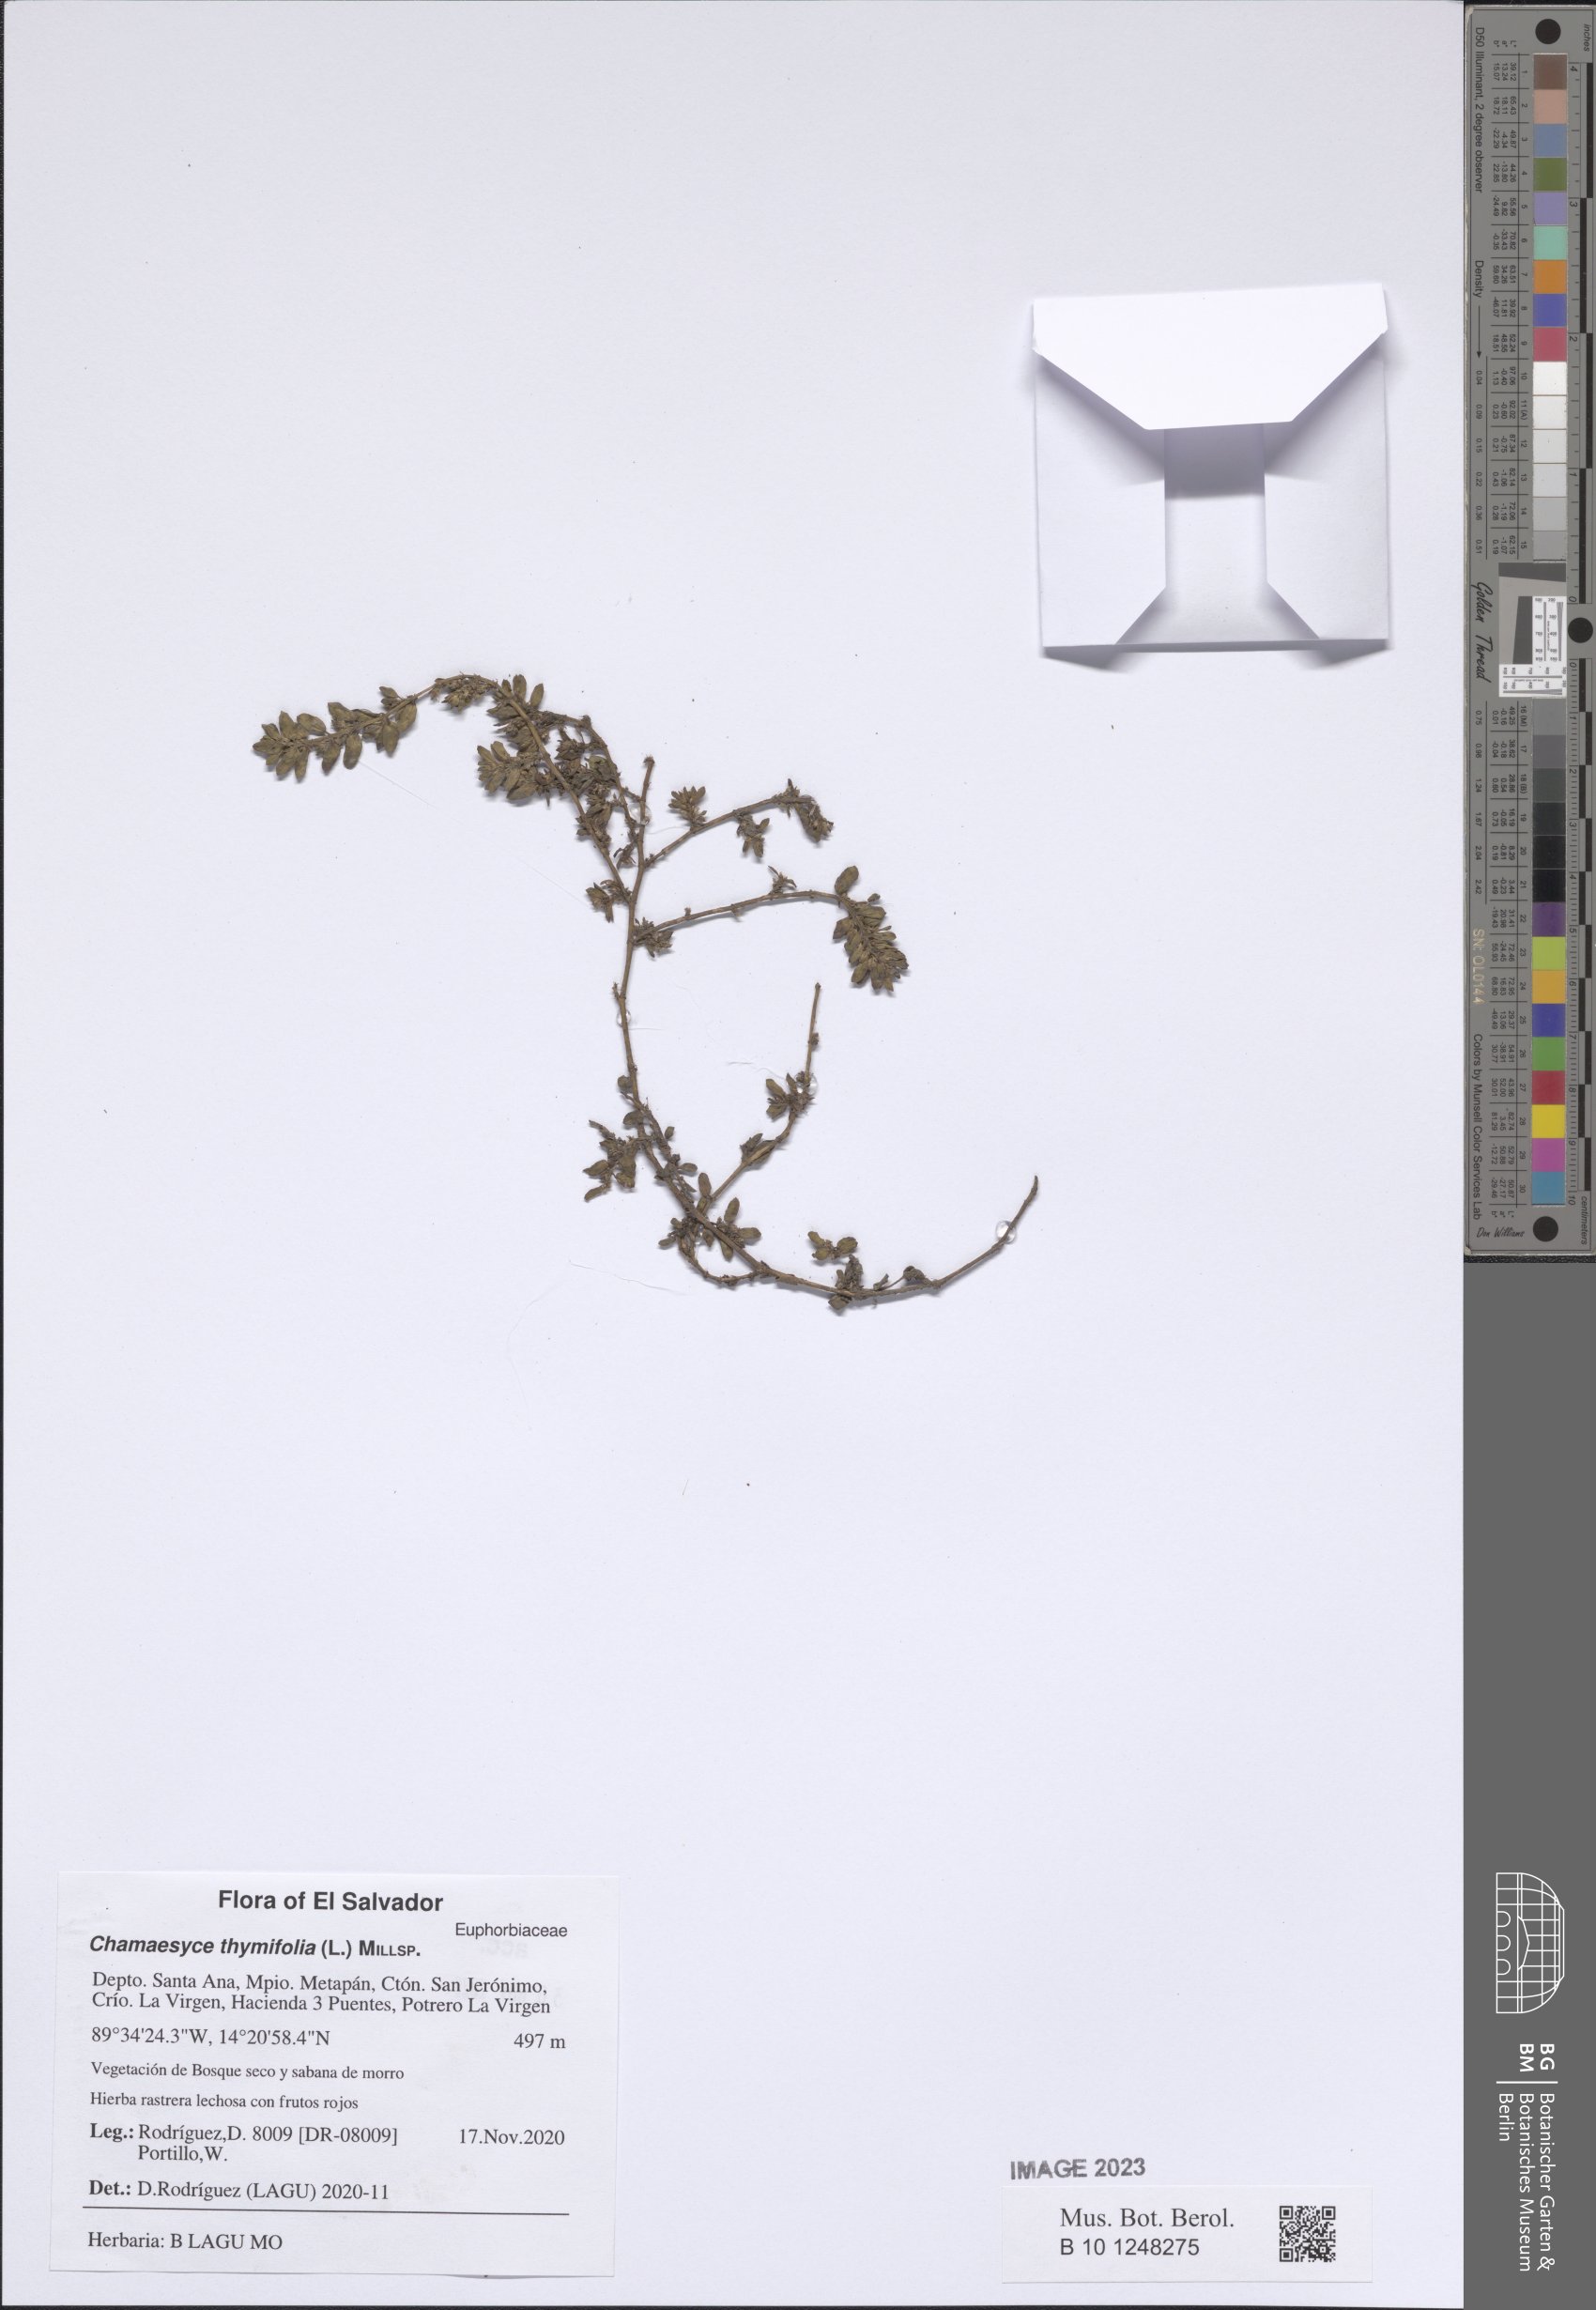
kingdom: Plantae
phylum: Tracheophyta
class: Magnoliopsida
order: Malpighiales
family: Euphorbiaceae
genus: Euphorbia
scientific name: Euphorbia thymifolia
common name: Gulf sandmat
